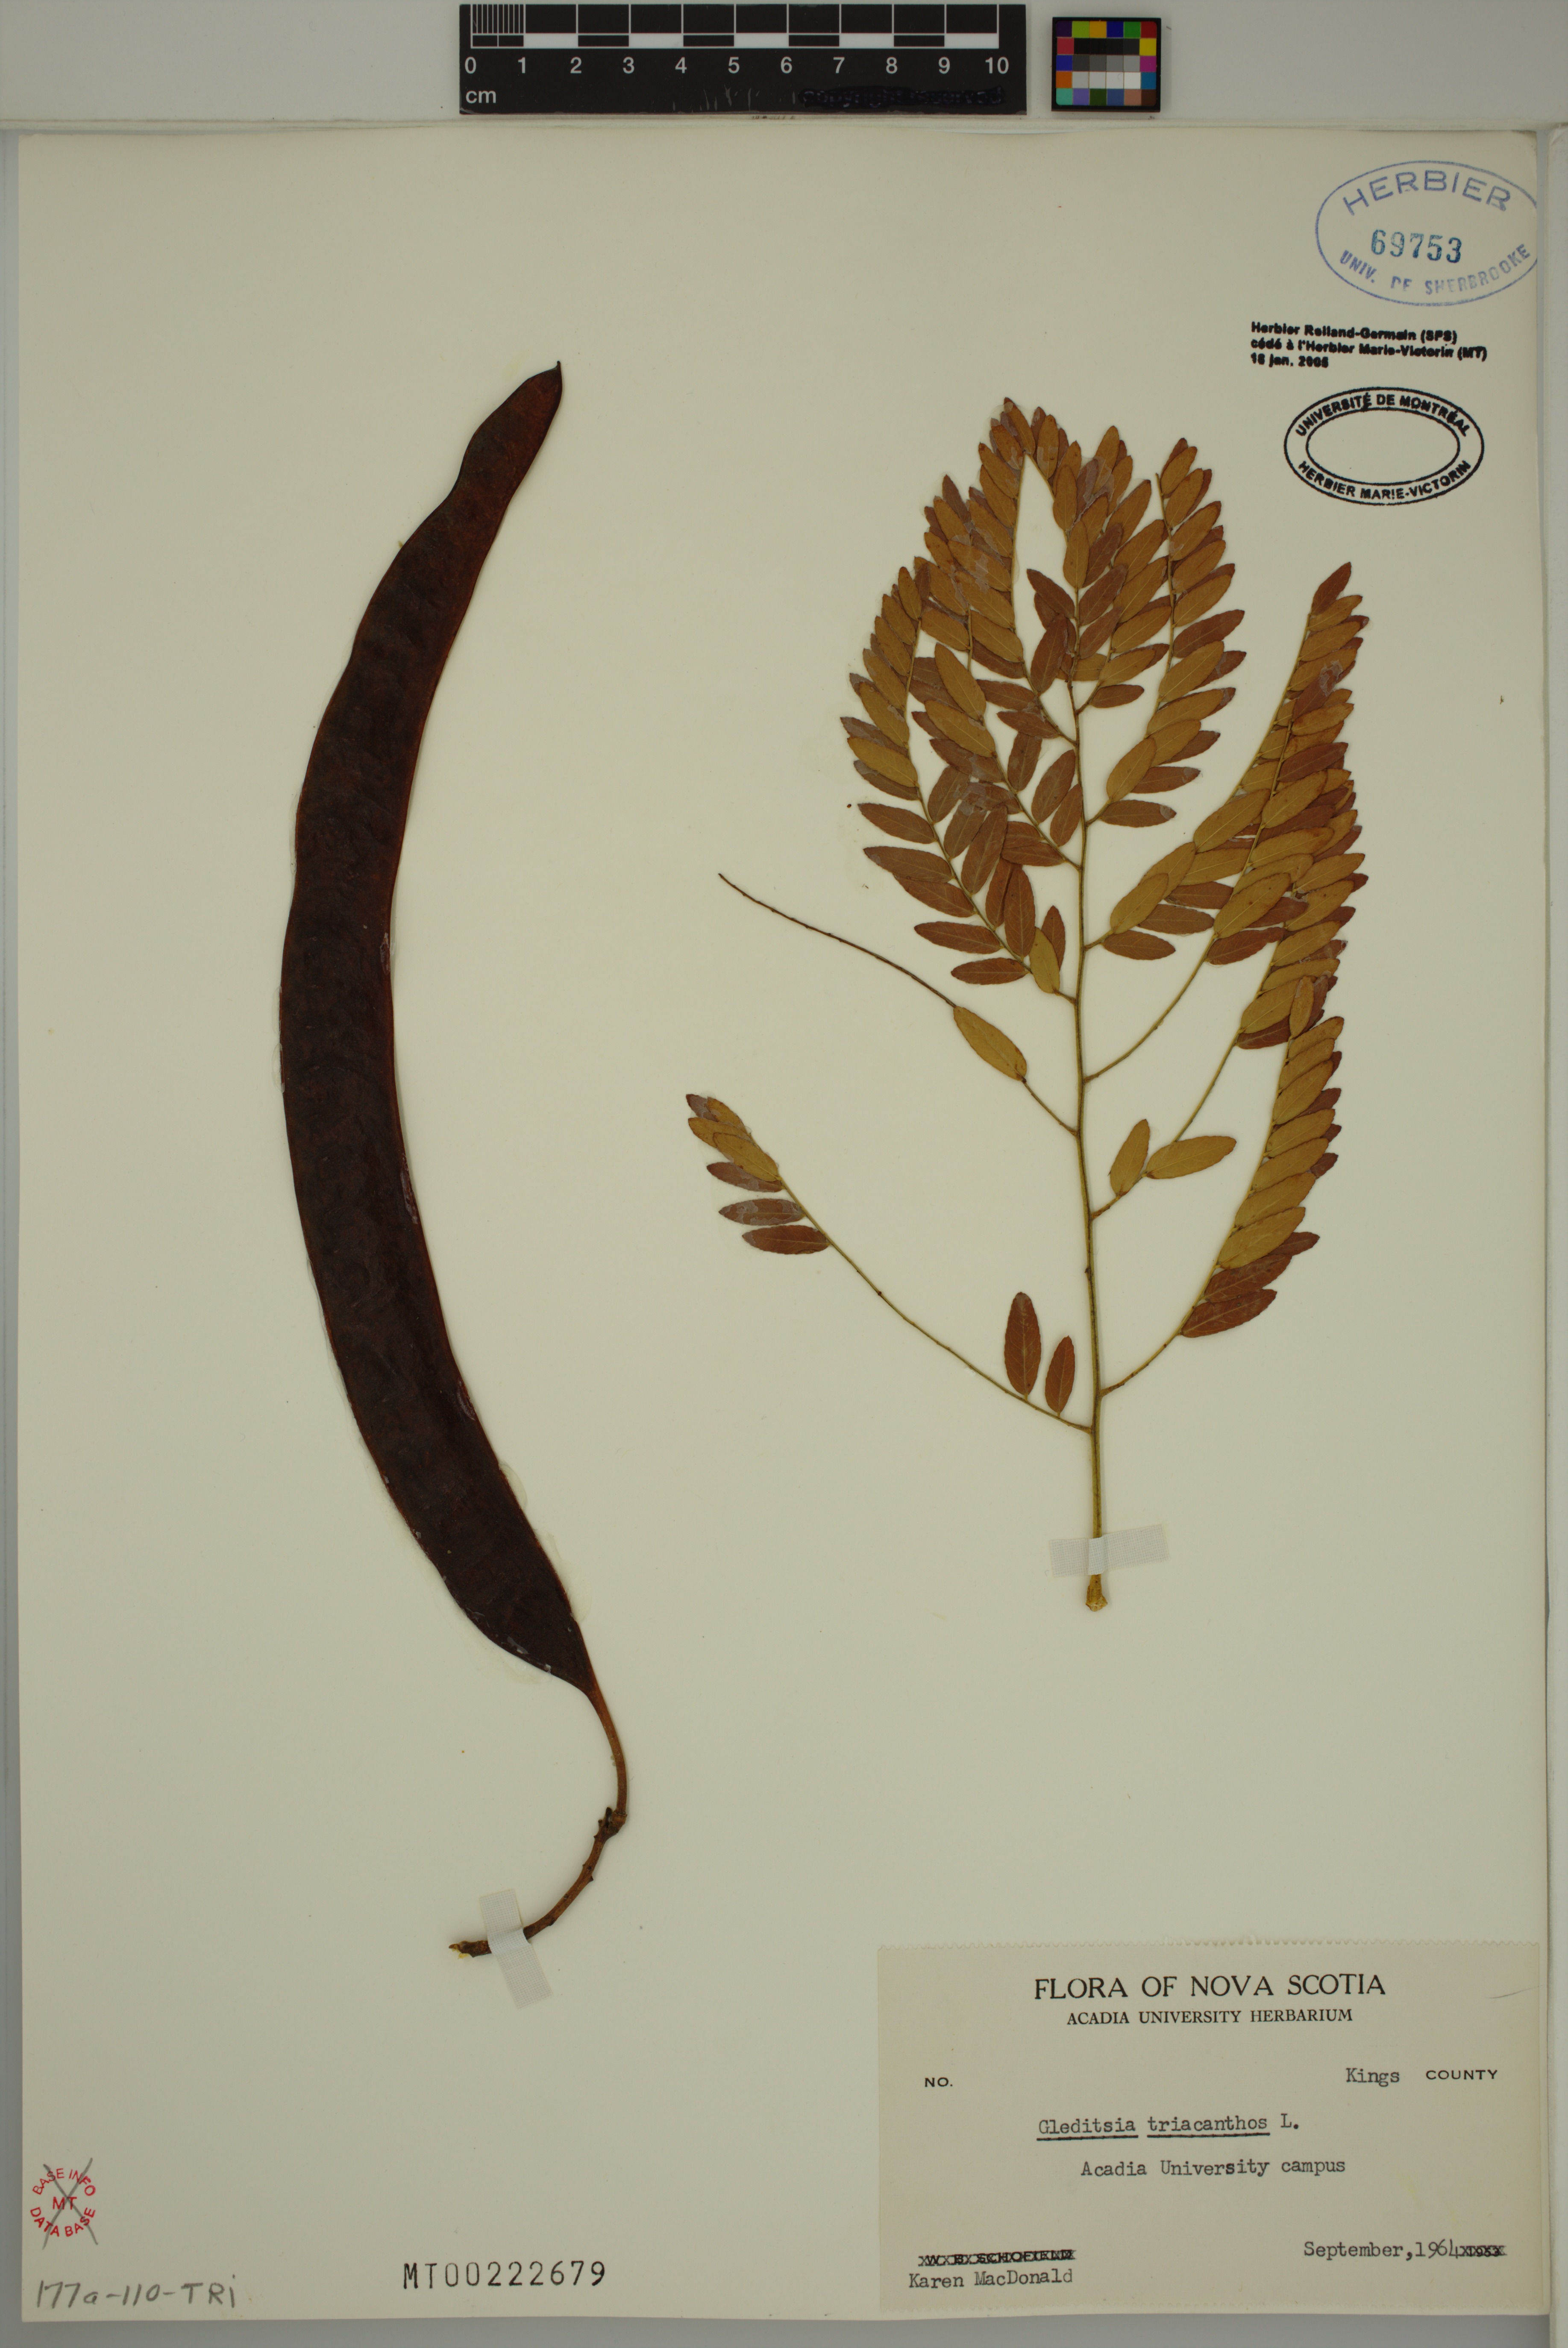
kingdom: Plantae
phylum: Tracheophyta
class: Magnoliopsida
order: Fabales
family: Fabaceae
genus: Gleditsia
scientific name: Gleditsia triacanthos
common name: Common honeylocust
